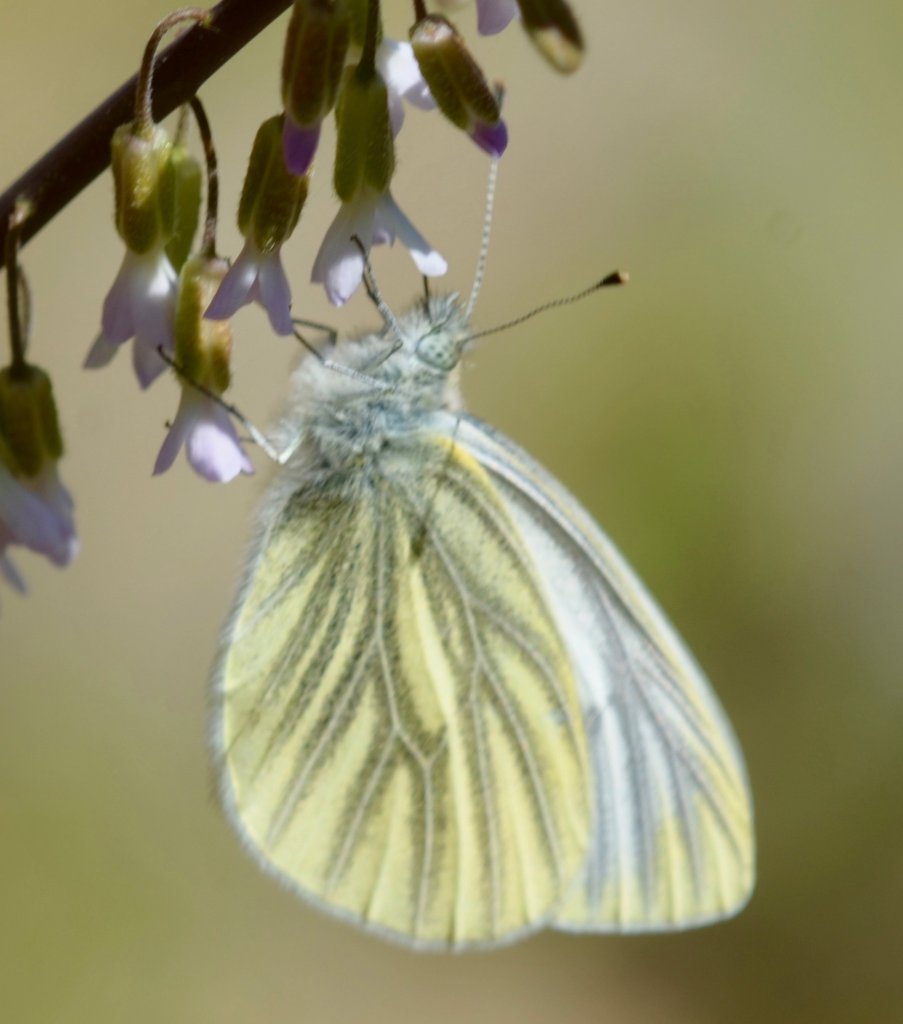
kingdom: Animalia
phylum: Arthropoda
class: Insecta
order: Lepidoptera
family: Pieridae
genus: Pieris
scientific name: Pieris marginalis
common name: Margined White
